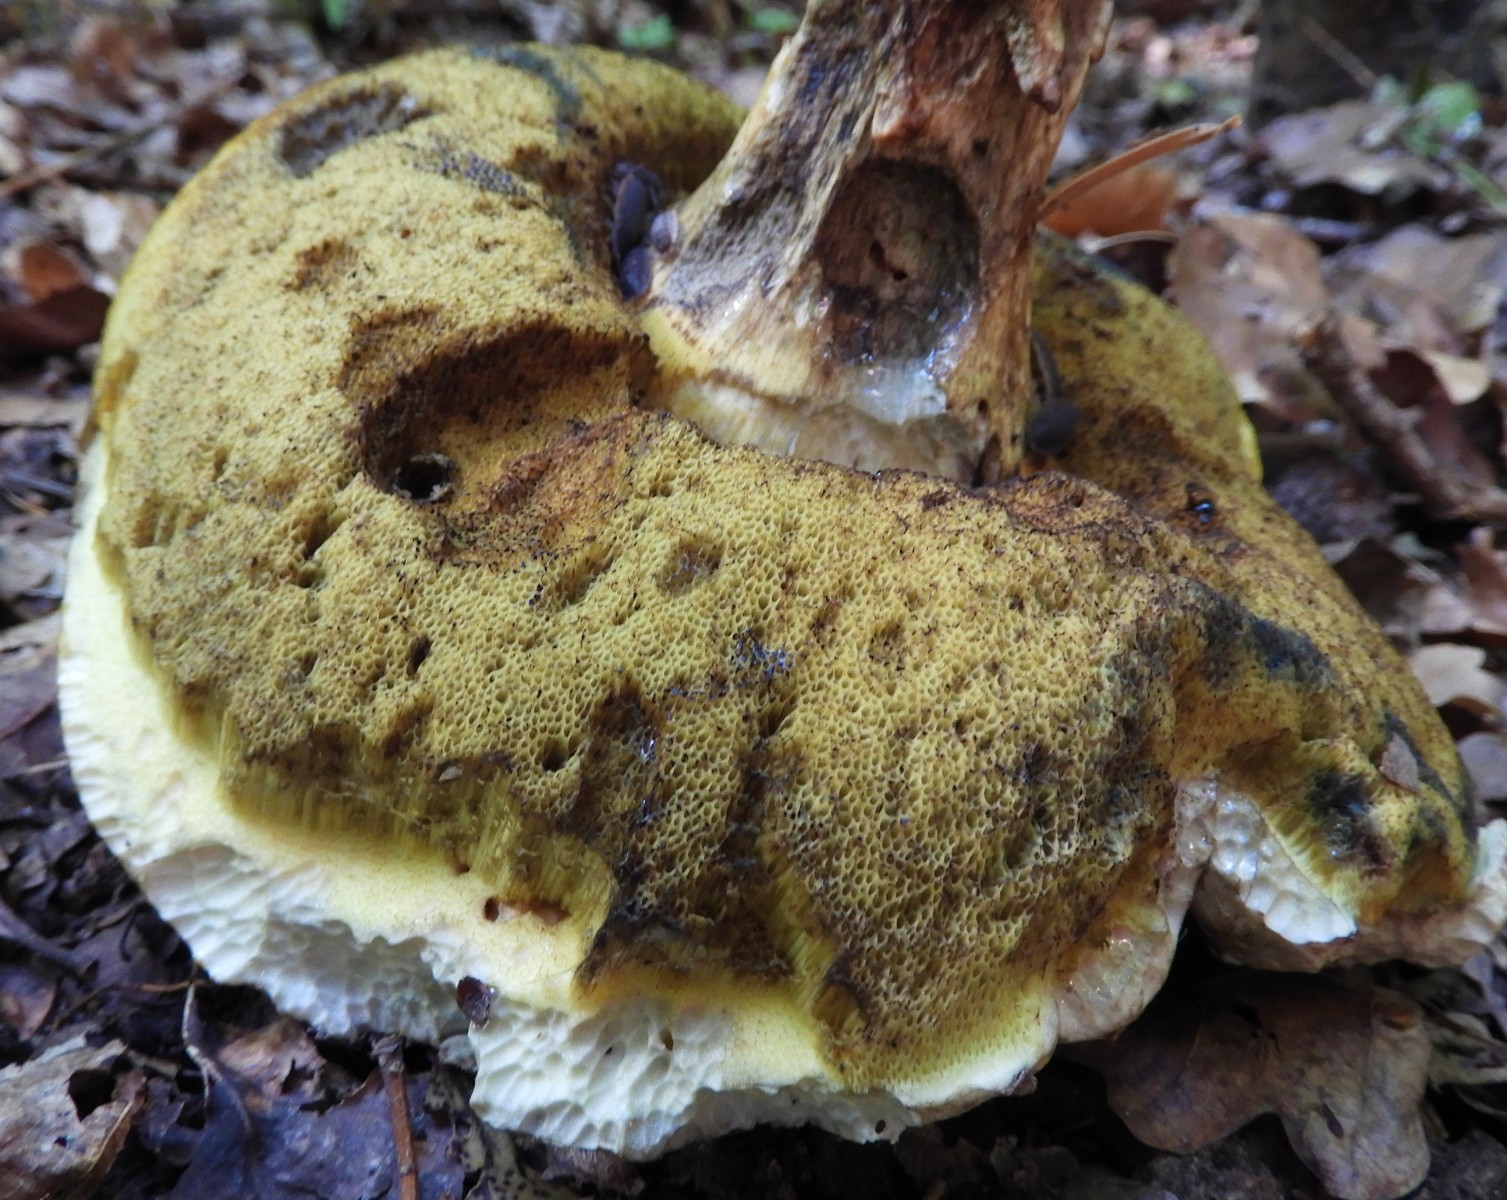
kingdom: Fungi
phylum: Basidiomycota
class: Agaricomycetes
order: Boletales
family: Boletaceae
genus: Caloboletus
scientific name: Caloboletus radicans
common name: rod-rørhat
